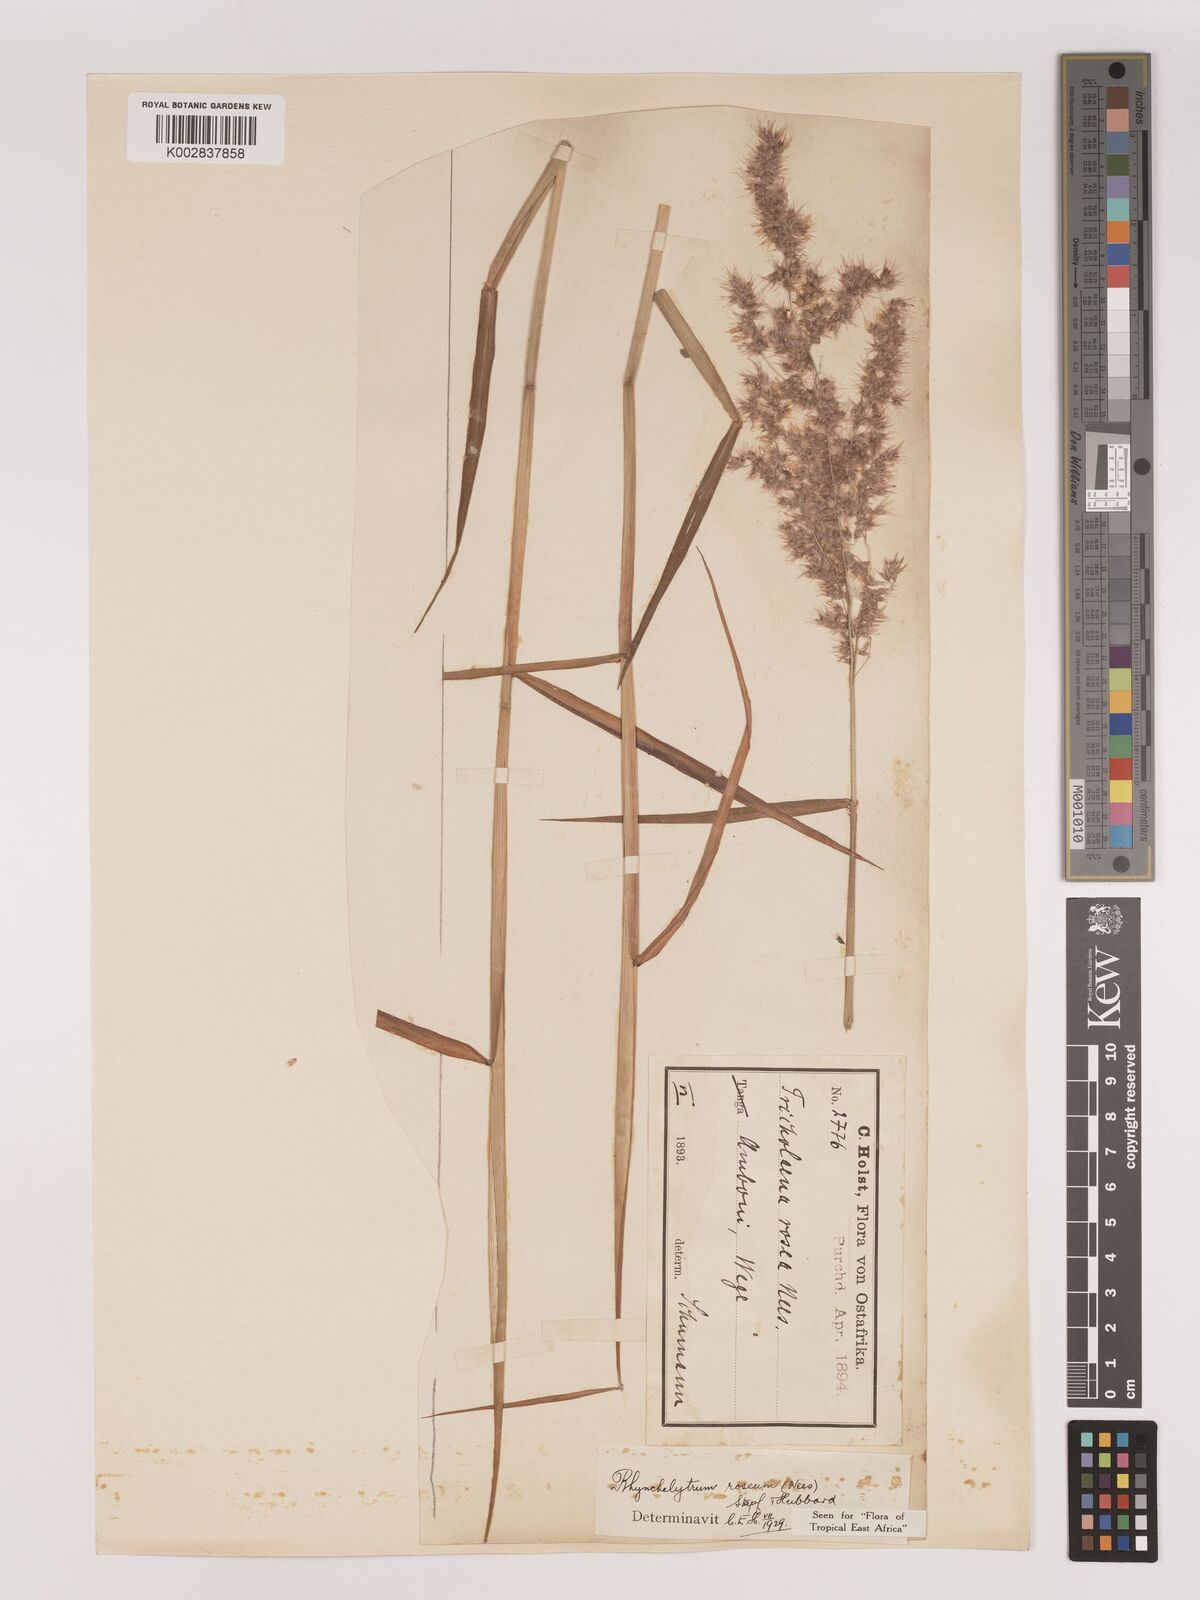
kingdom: Plantae
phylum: Tracheophyta
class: Liliopsida
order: Poales
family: Poaceae
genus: Melinis
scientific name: Melinis repens
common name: Rose natal grass
